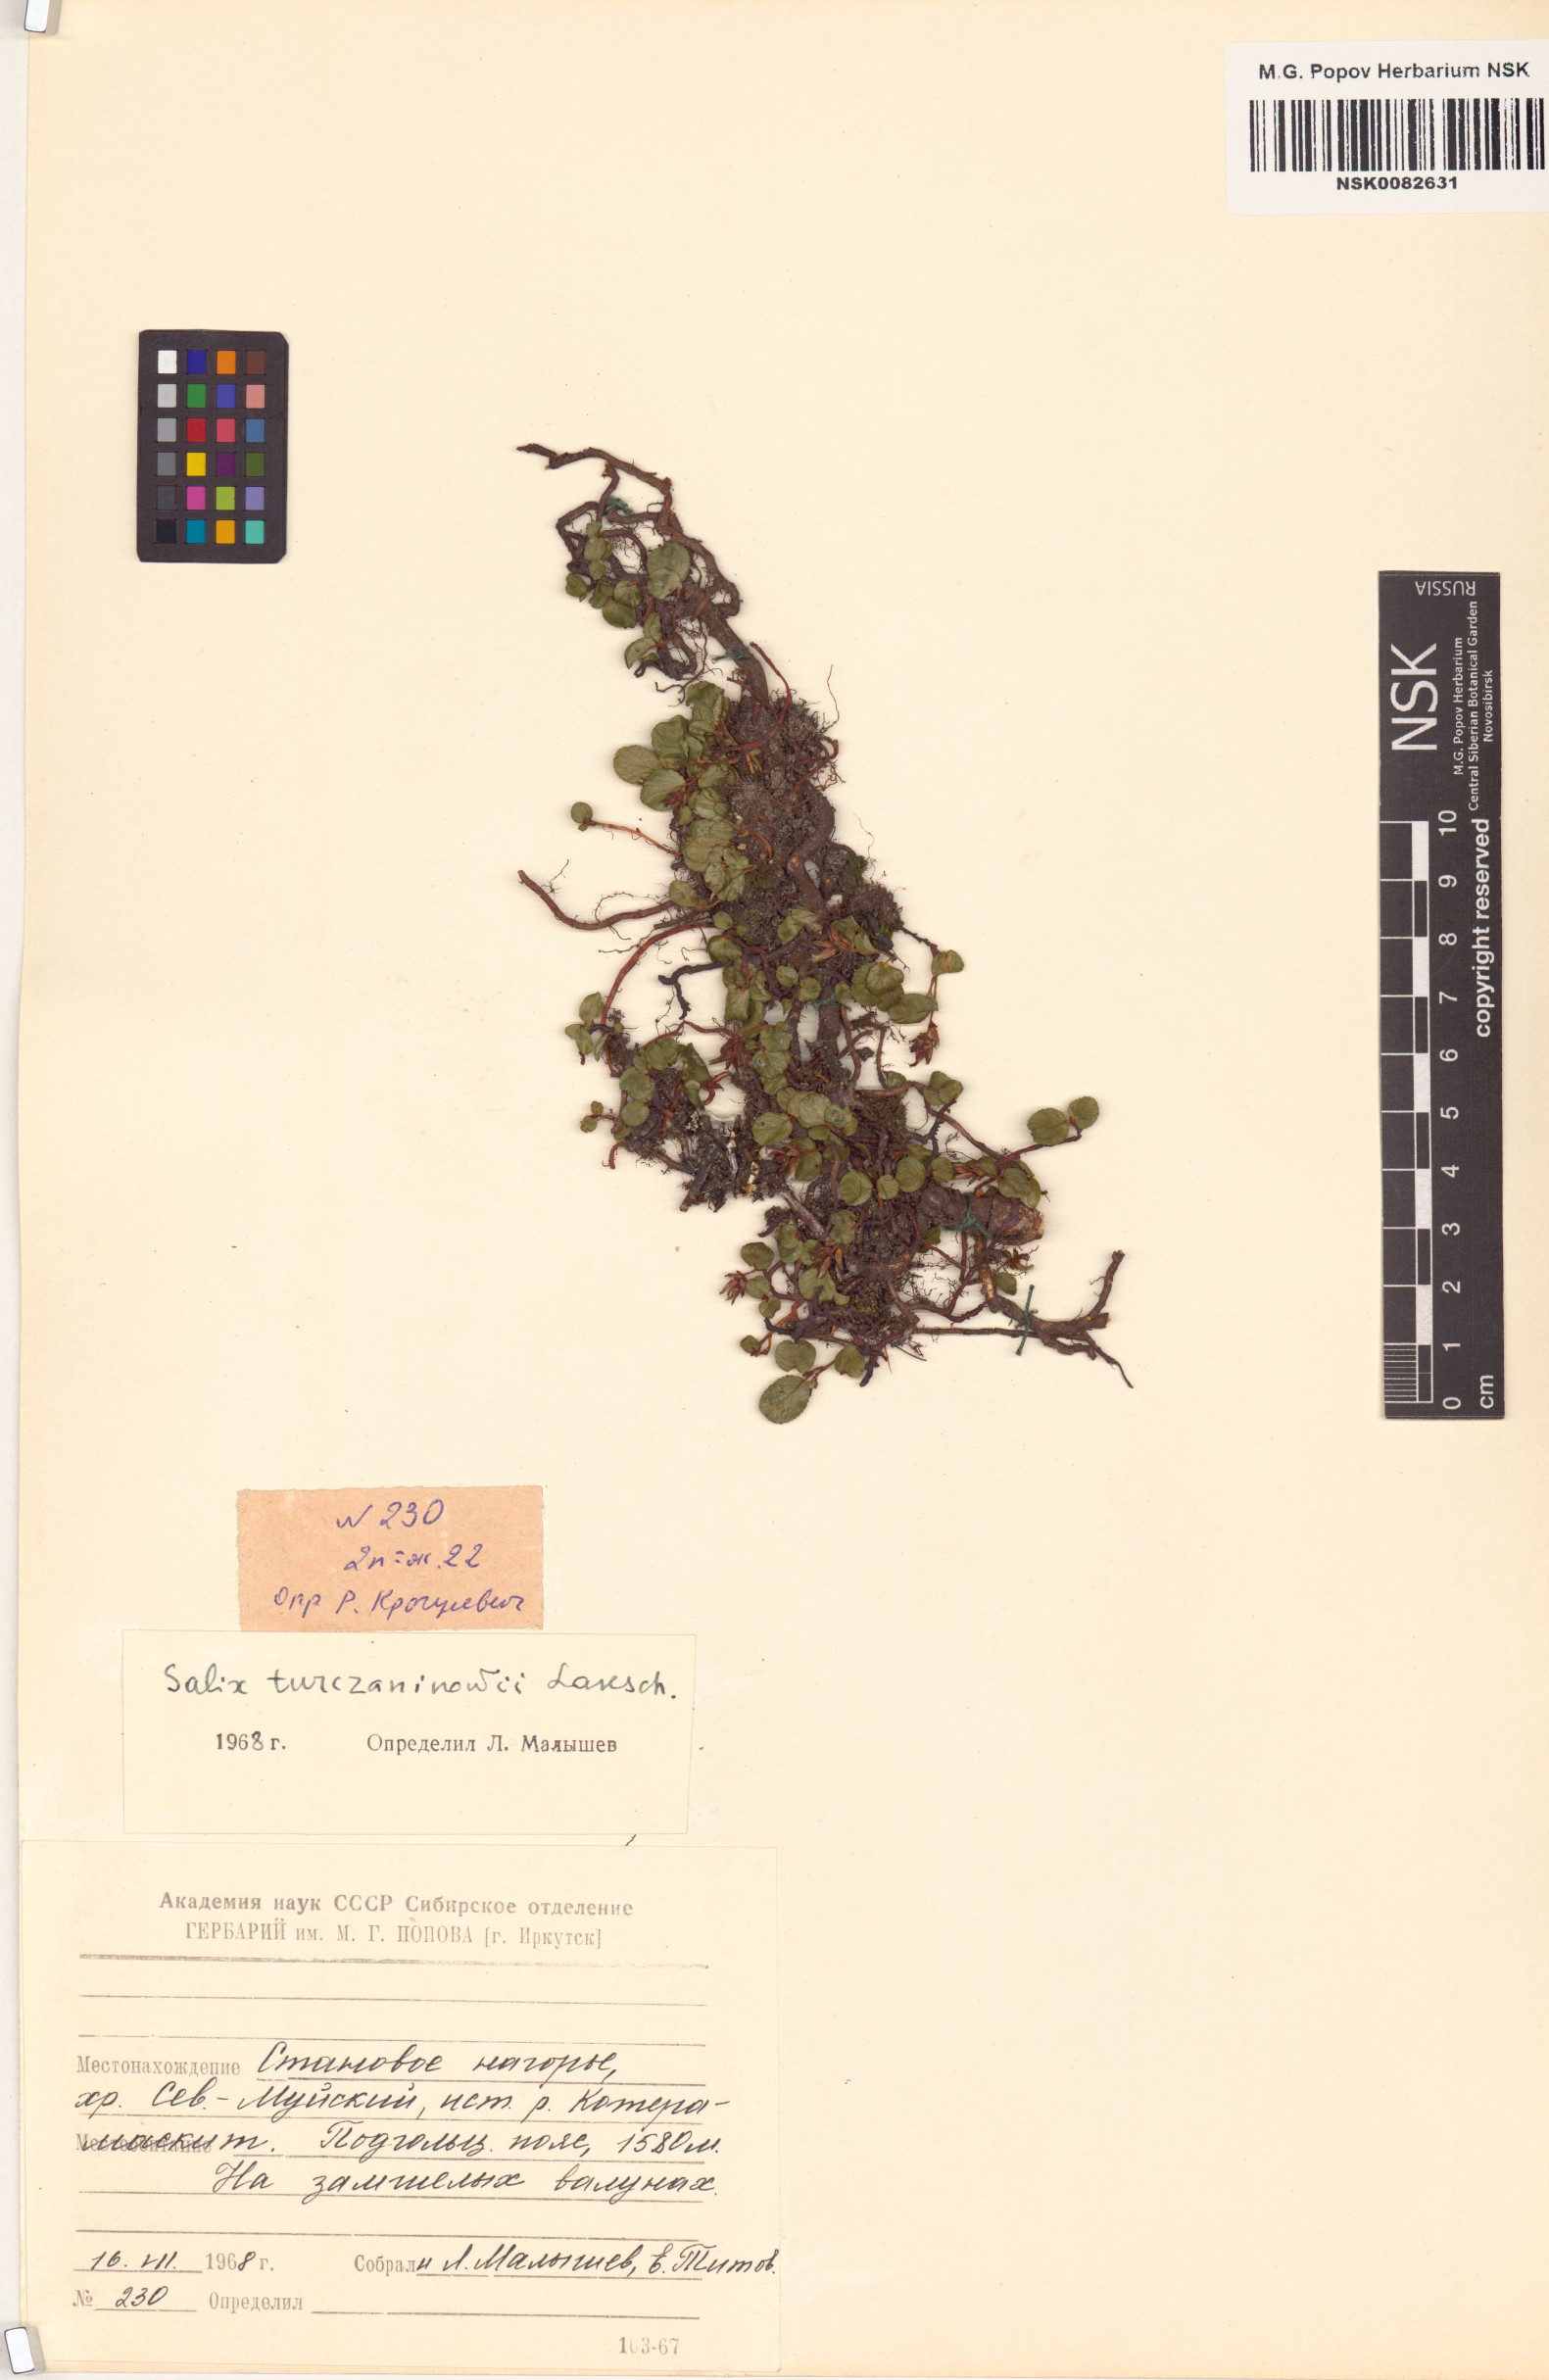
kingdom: Plantae
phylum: Tracheophyta
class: Magnoliopsida
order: Malpighiales
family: Salicaceae
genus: Salix
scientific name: Salix turczaninowii
